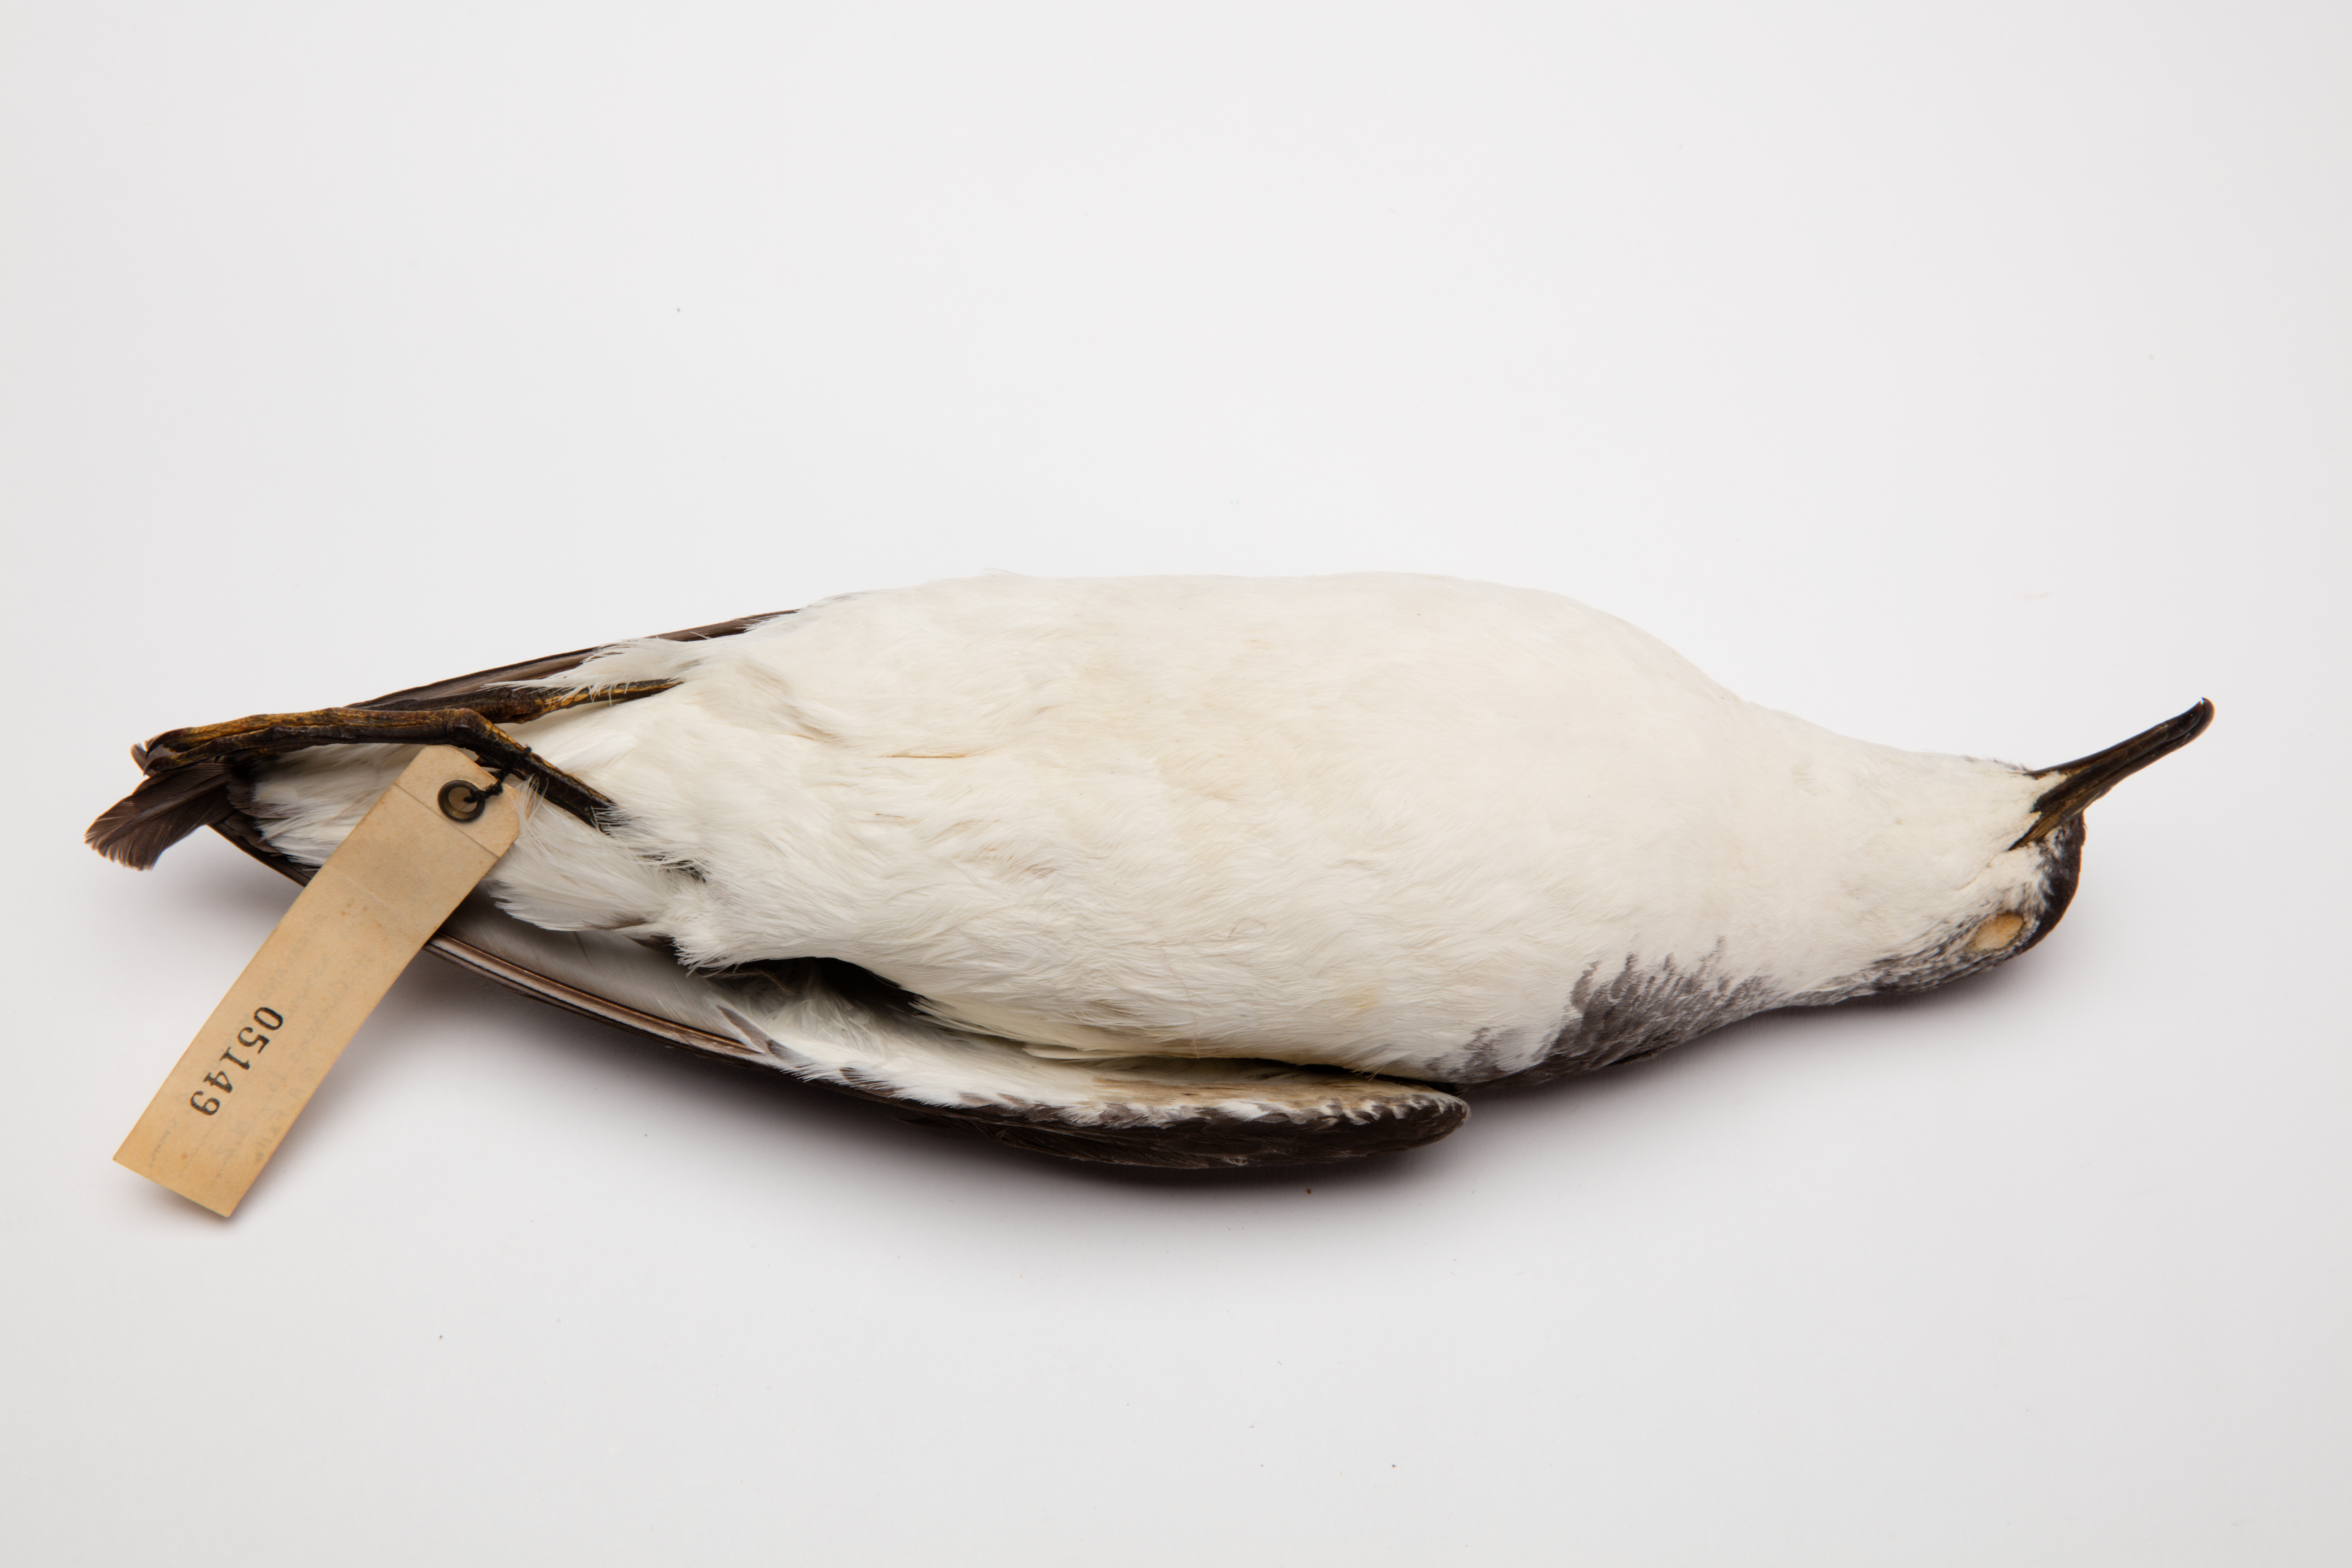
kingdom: Animalia
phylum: Chordata
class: Aves
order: Procellariiformes
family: Procellariidae
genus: Puffinus
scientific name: Puffinus assimilis
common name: Little shearwater
